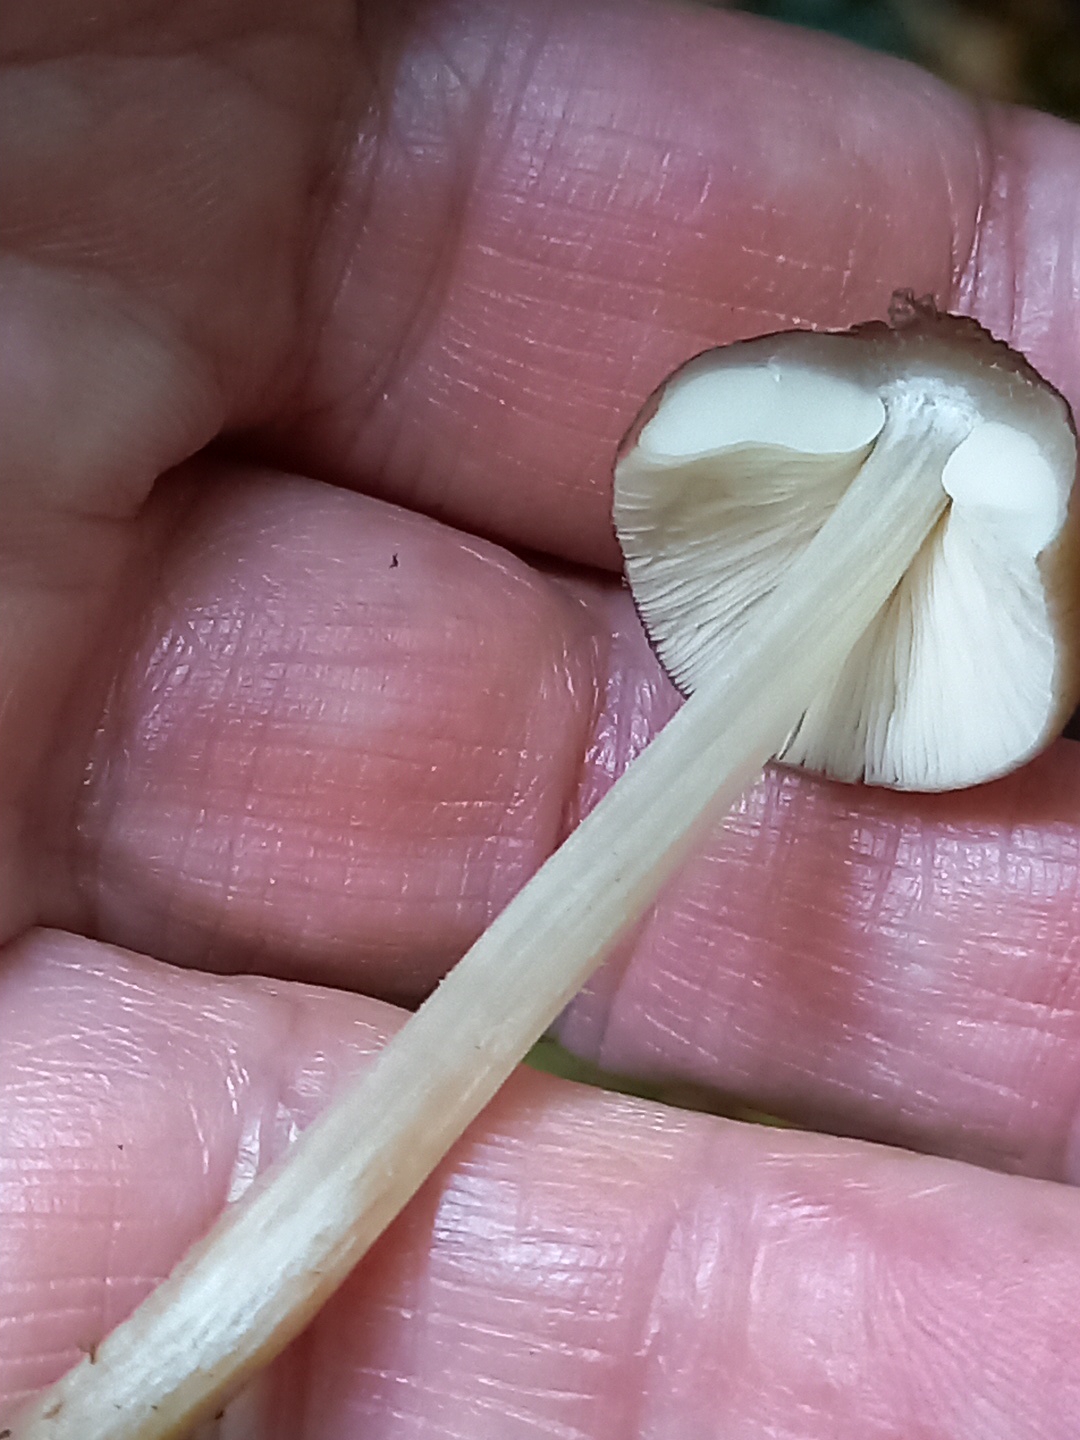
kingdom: Fungi
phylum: Basidiomycota
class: Agaricomycetes
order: Agaricales
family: Pluteaceae
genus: Pluteus
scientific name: Pluteus
